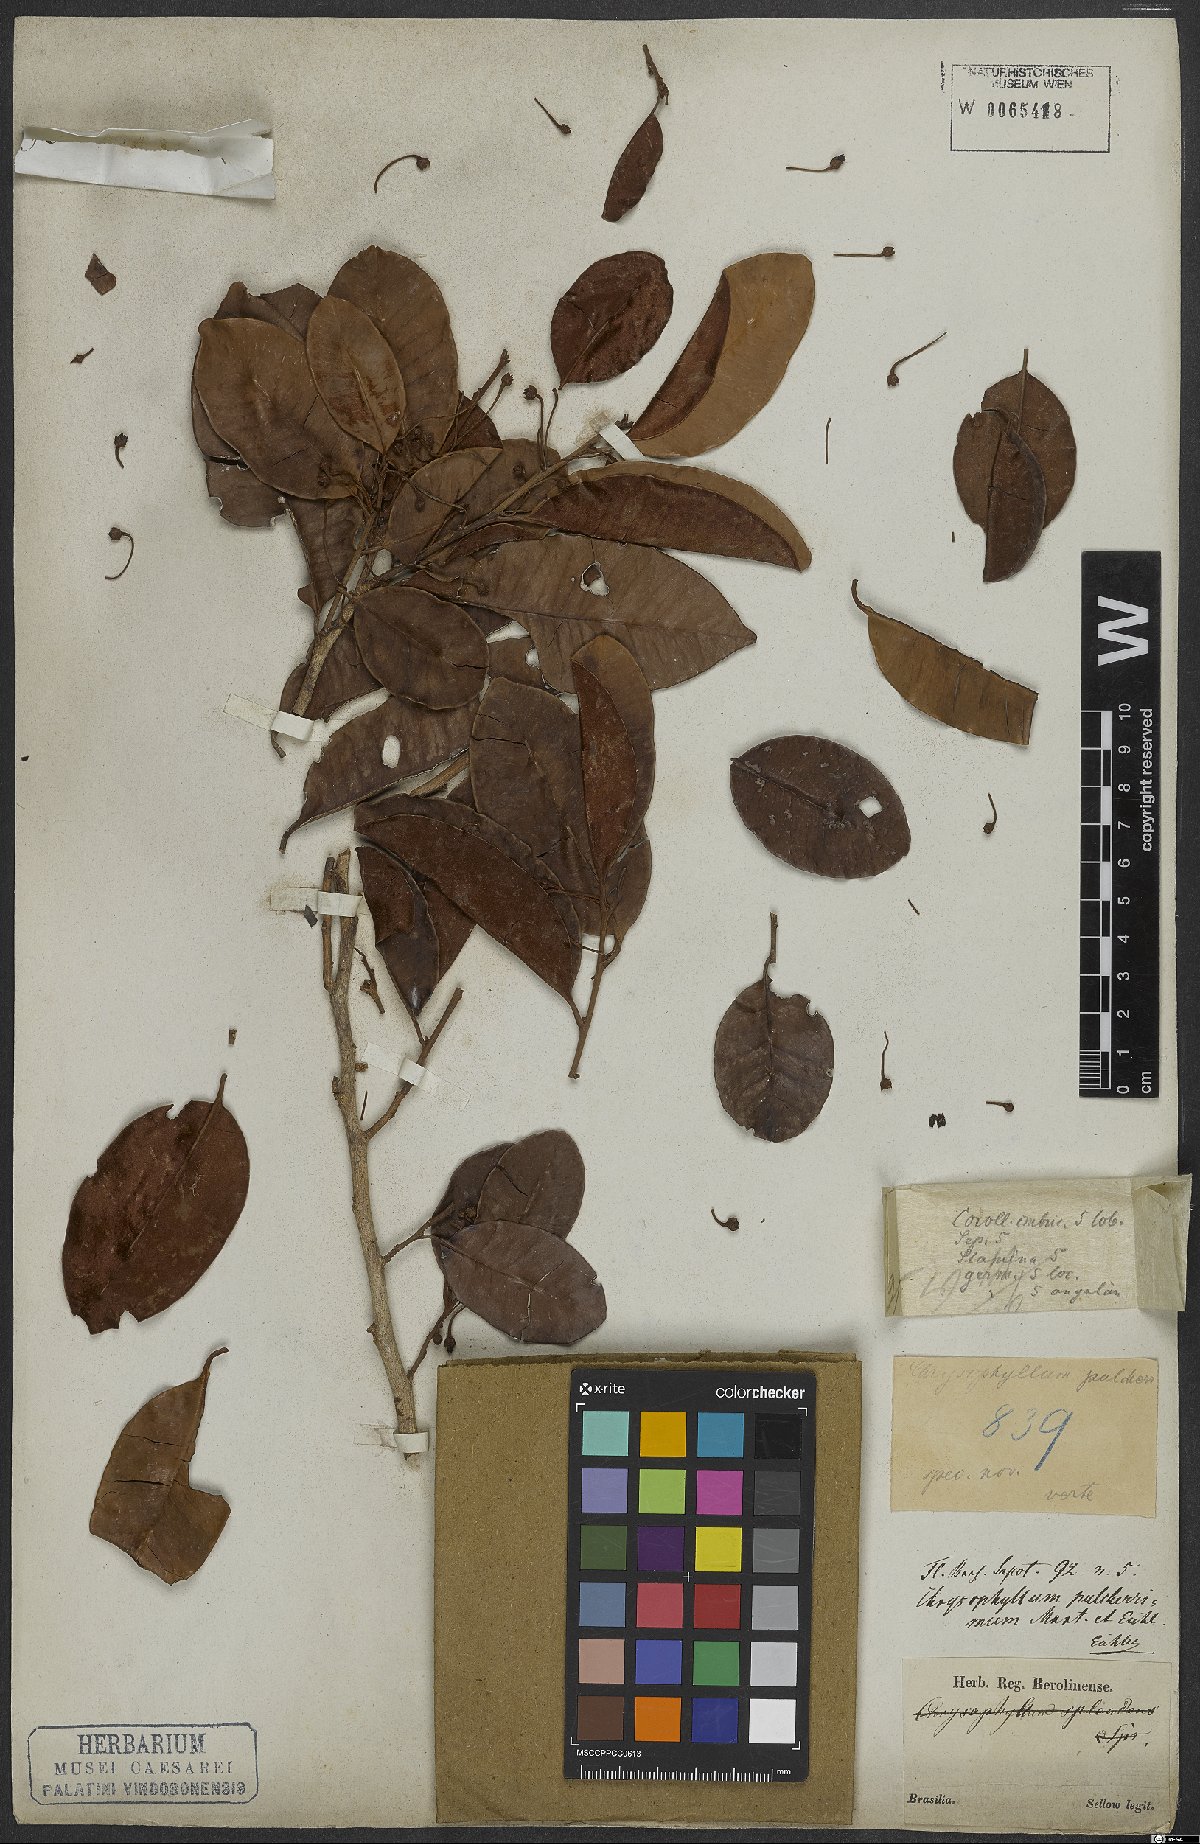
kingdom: Plantae
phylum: Tracheophyta
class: Magnoliopsida
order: Ericales
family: Sapotaceae
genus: Chrysophyllum
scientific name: Chrysophyllum cainito
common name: Star-apple
